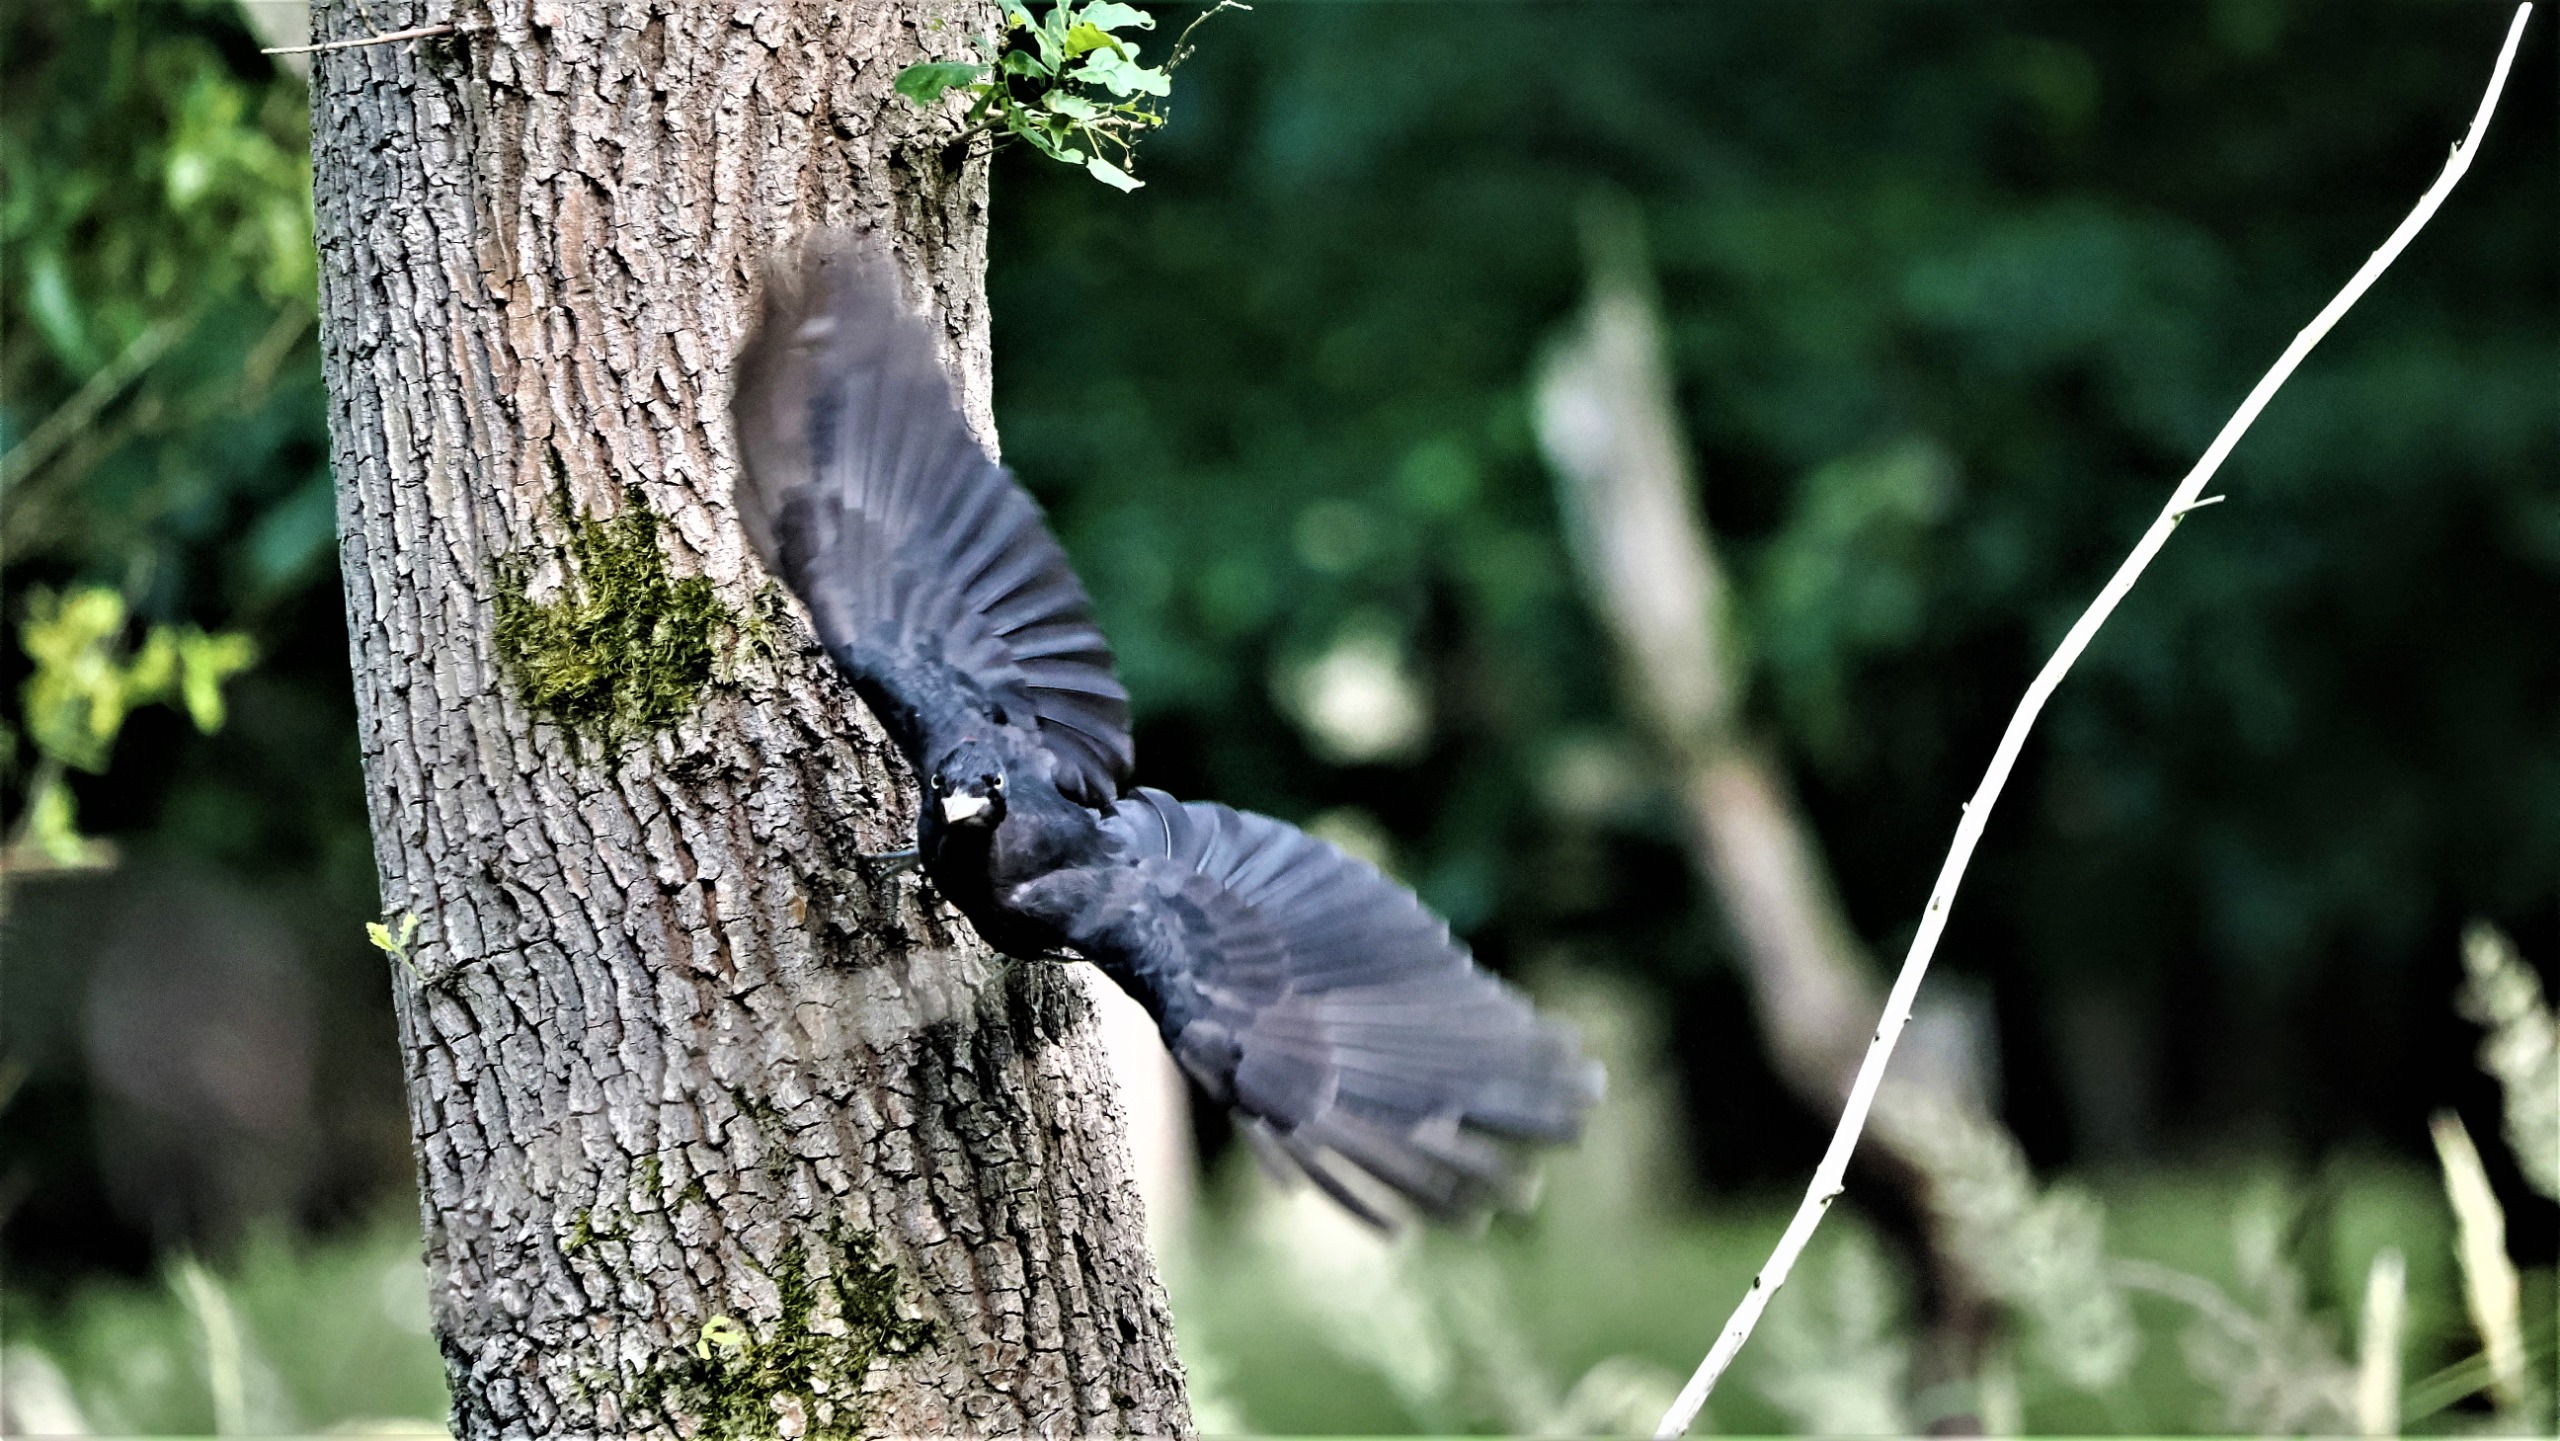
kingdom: Animalia
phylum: Chordata
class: Aves
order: Piciformes
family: Picidae
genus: Dryocopus
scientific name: Dryocopus martius
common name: Sortspætte
